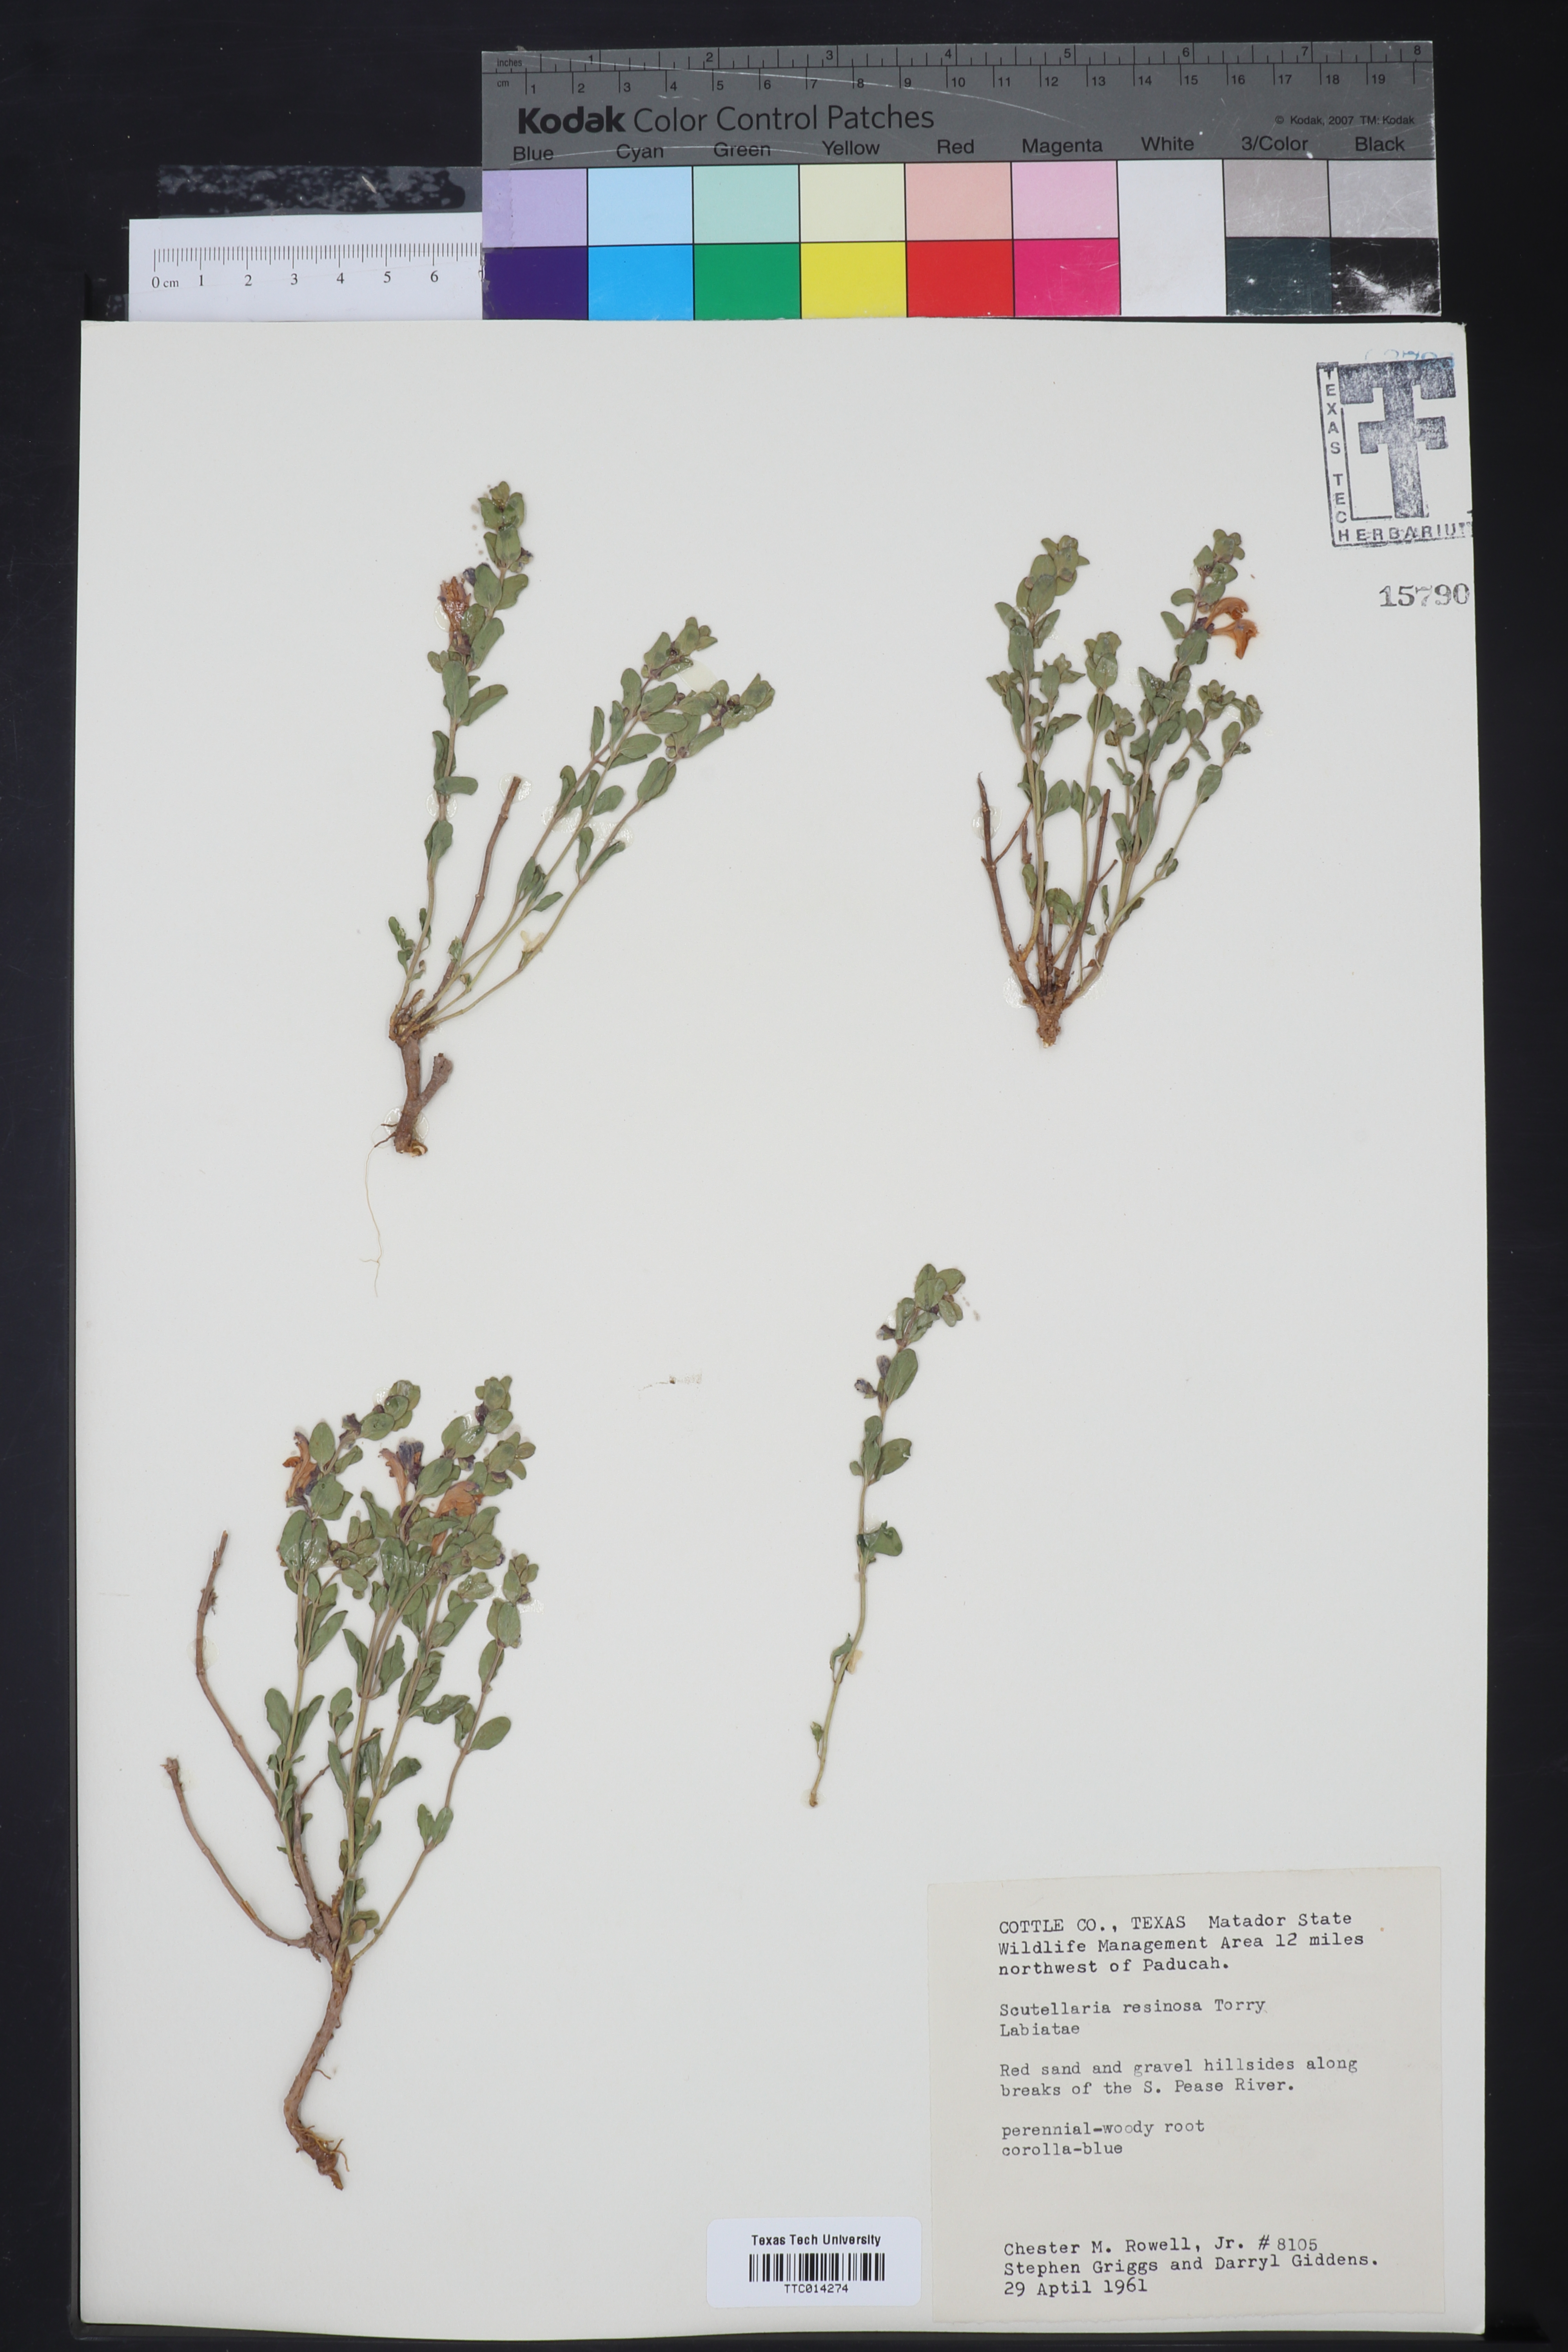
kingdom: Plantae
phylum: Tracheophyta
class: Magnoliopsida
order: Lamiales
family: Lamiaceae
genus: Scutellaria
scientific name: Scutellaria resinosa
